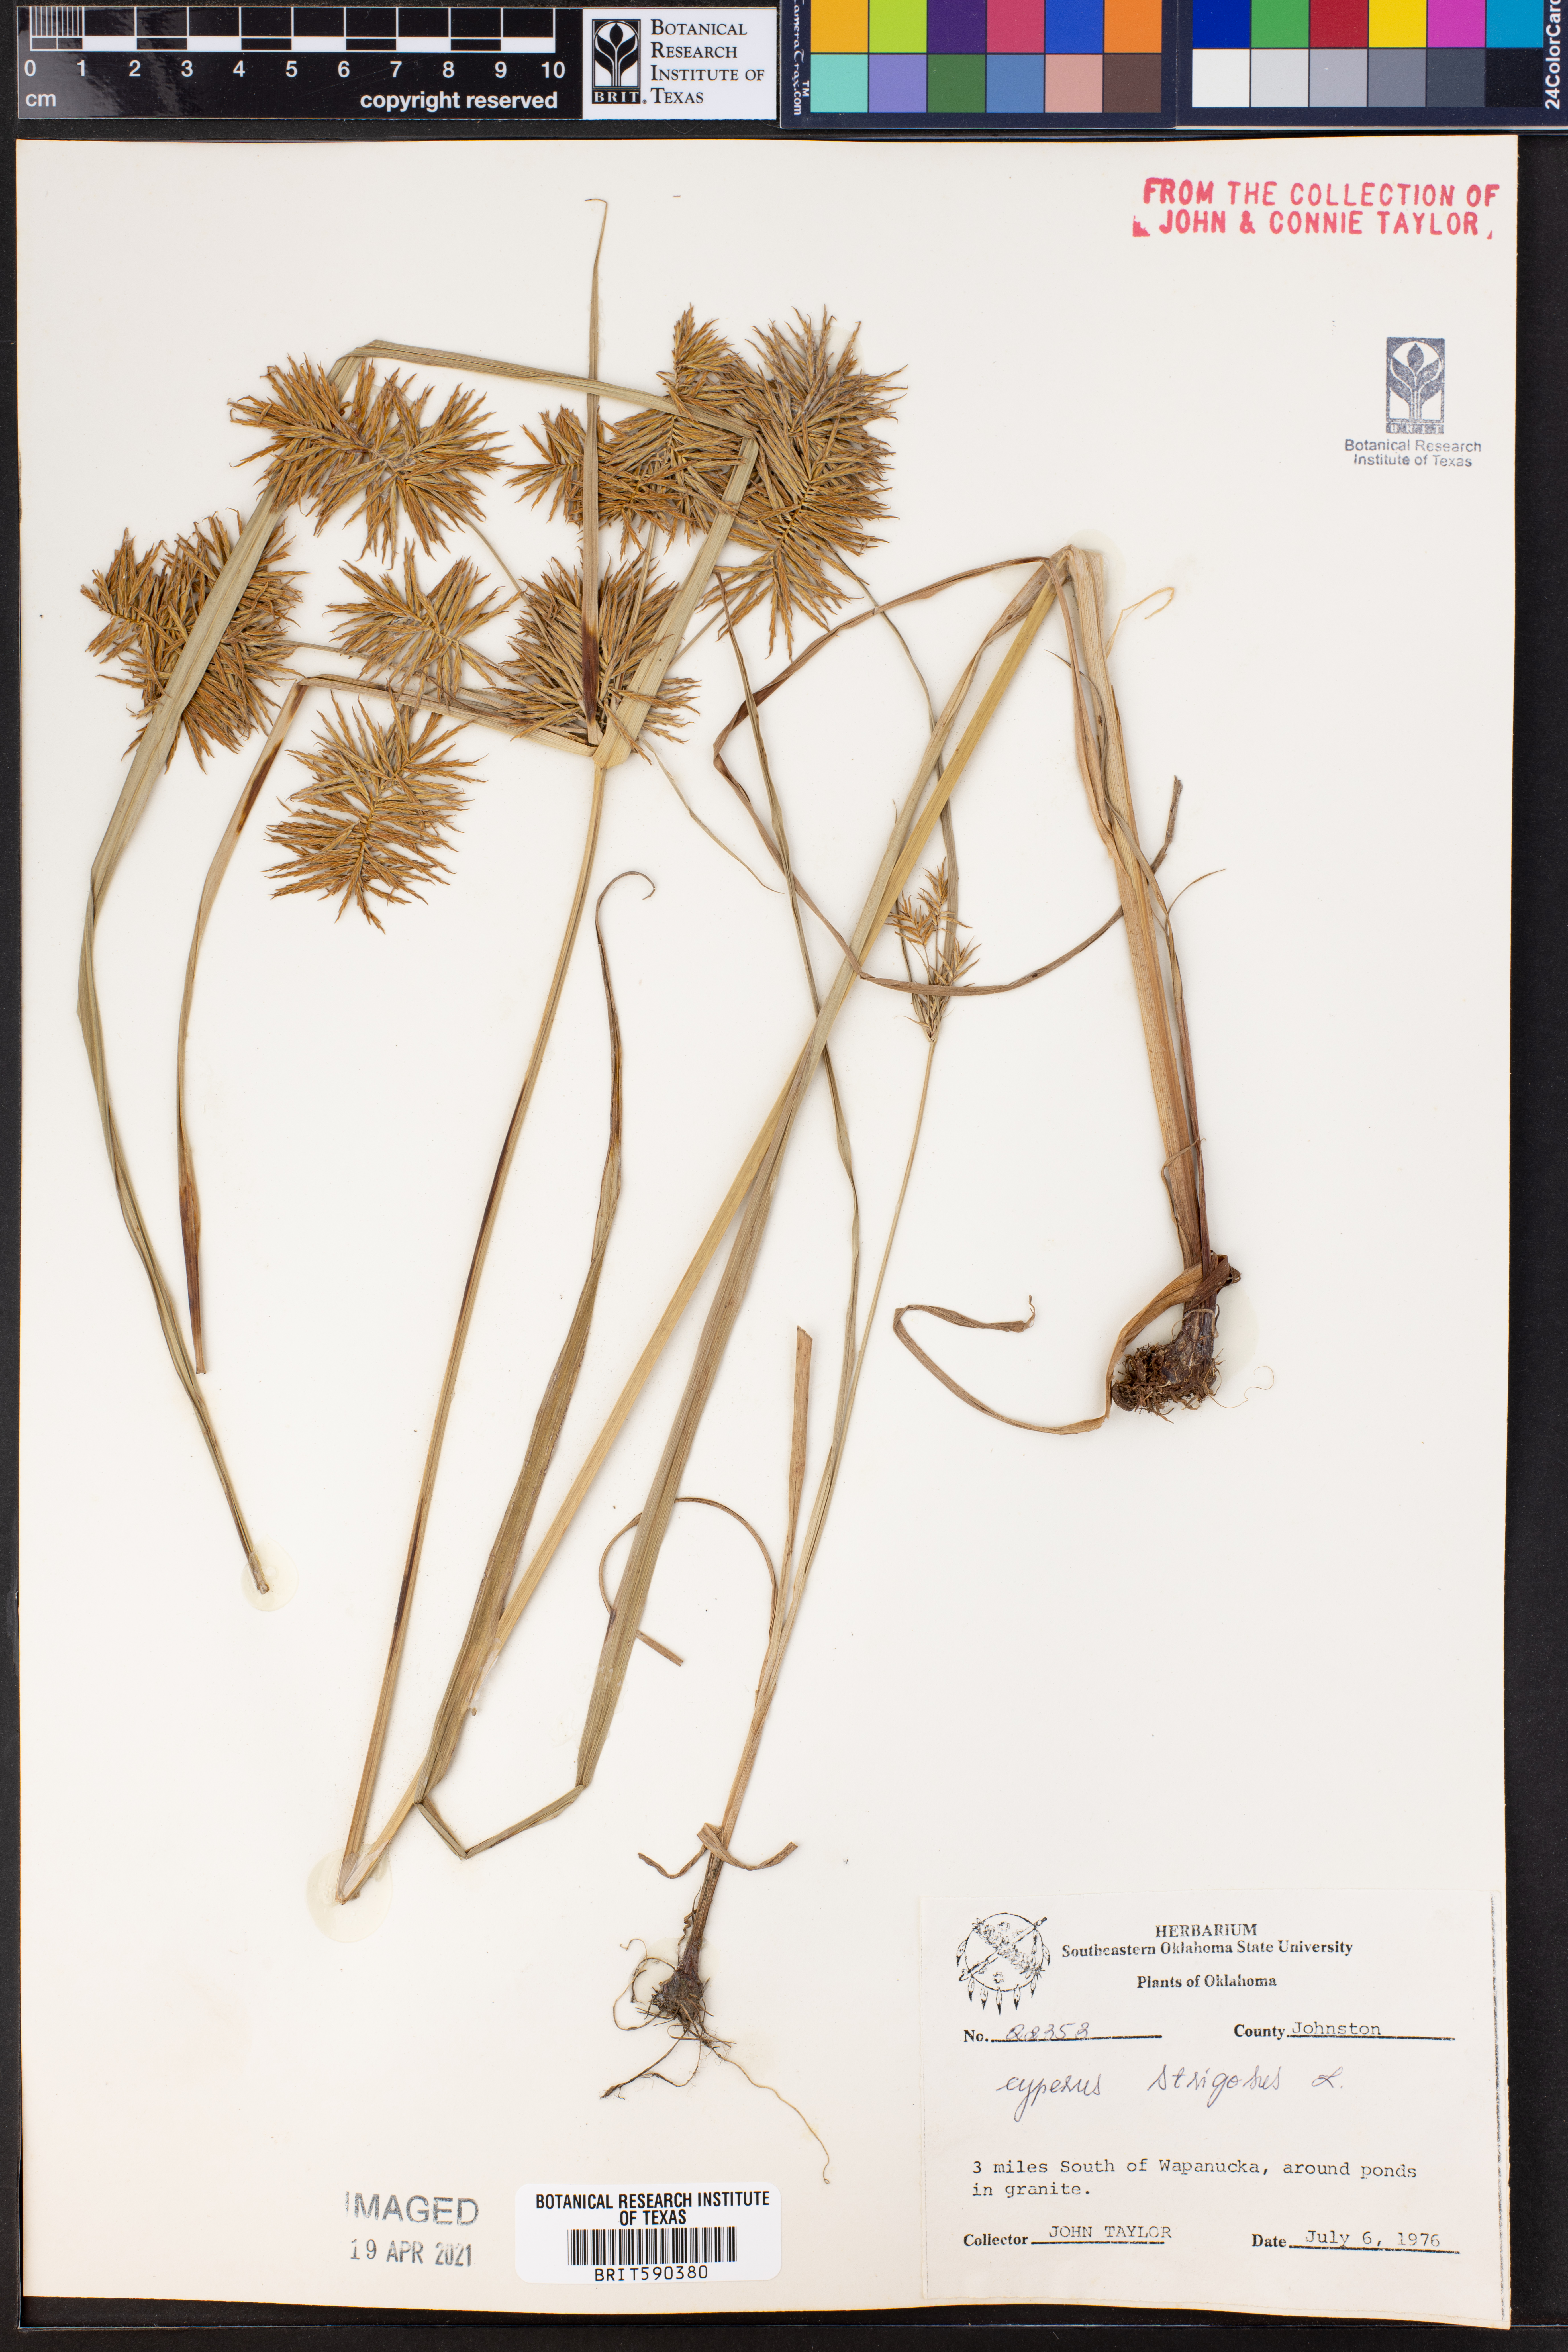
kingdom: Plantae
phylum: Tracheophyta
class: Liliopsida
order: Poales
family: Cyperaceae
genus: Cyperus
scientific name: Cyperus strigosus
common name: False nutsedge
